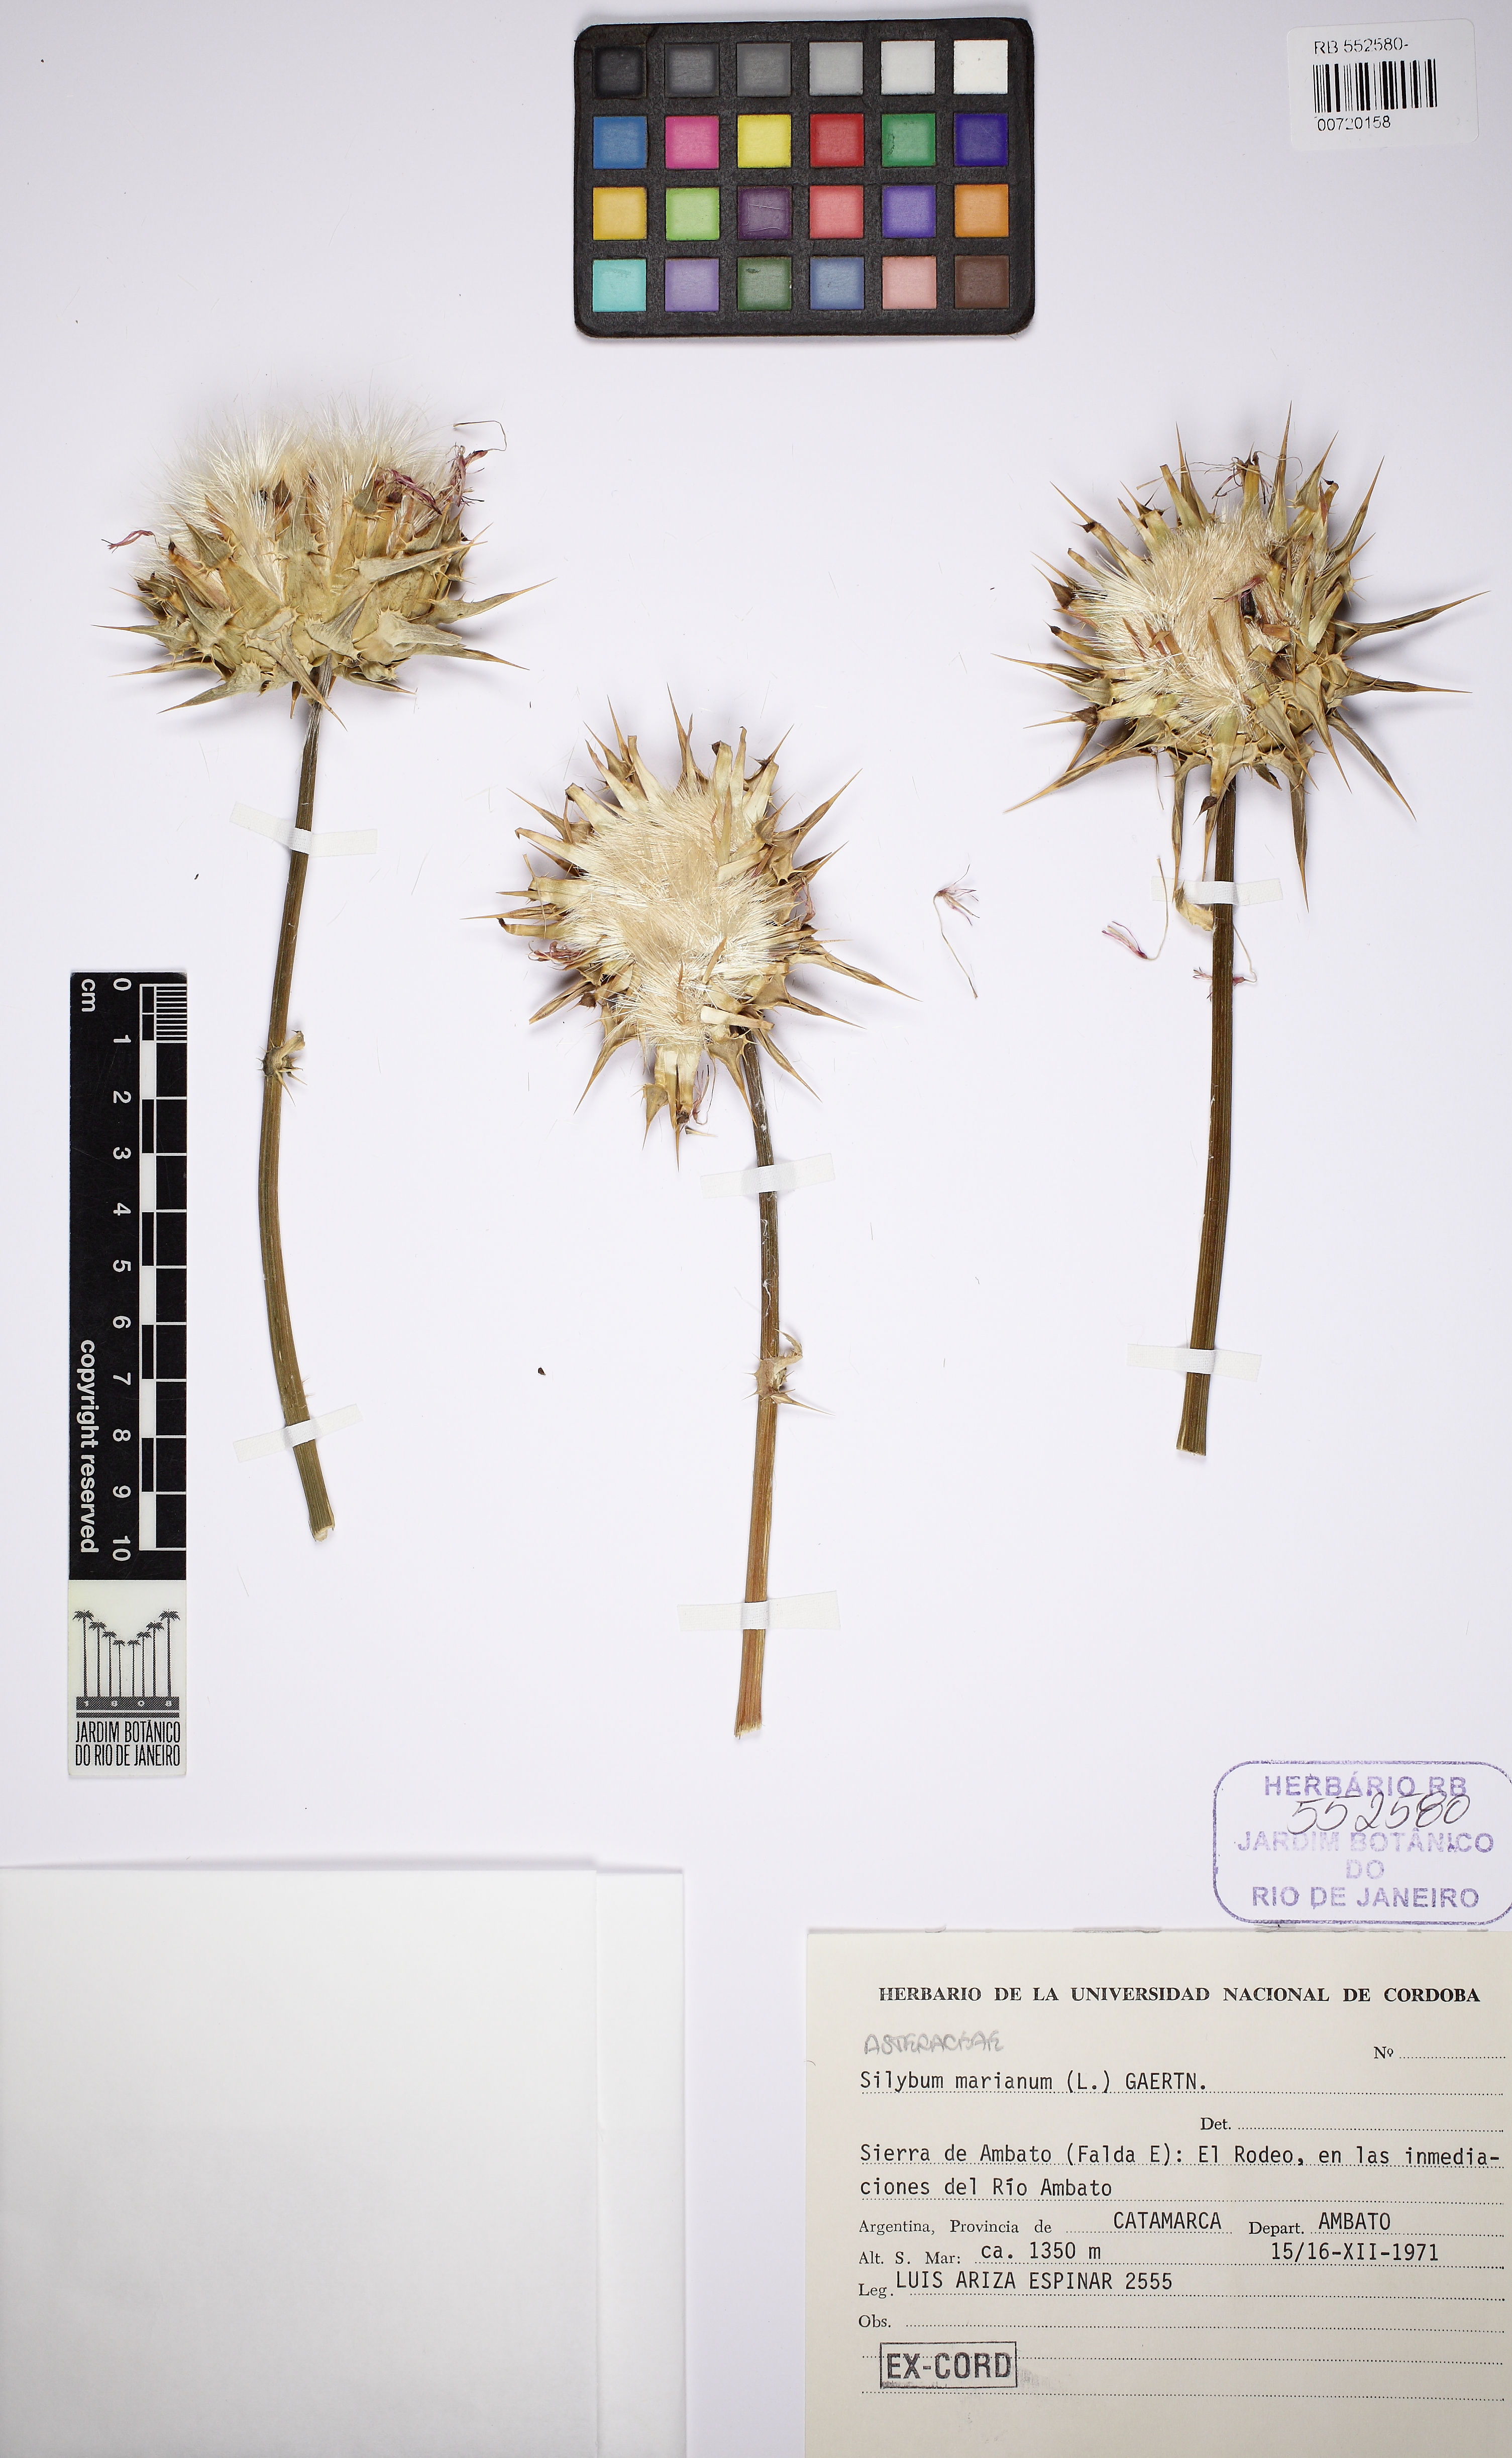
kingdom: Plantae
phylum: Tracheophyta
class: Magnoliopsida
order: Asterales
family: Asteraceae
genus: Silybum
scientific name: Silybum marianum
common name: Milk thistle
